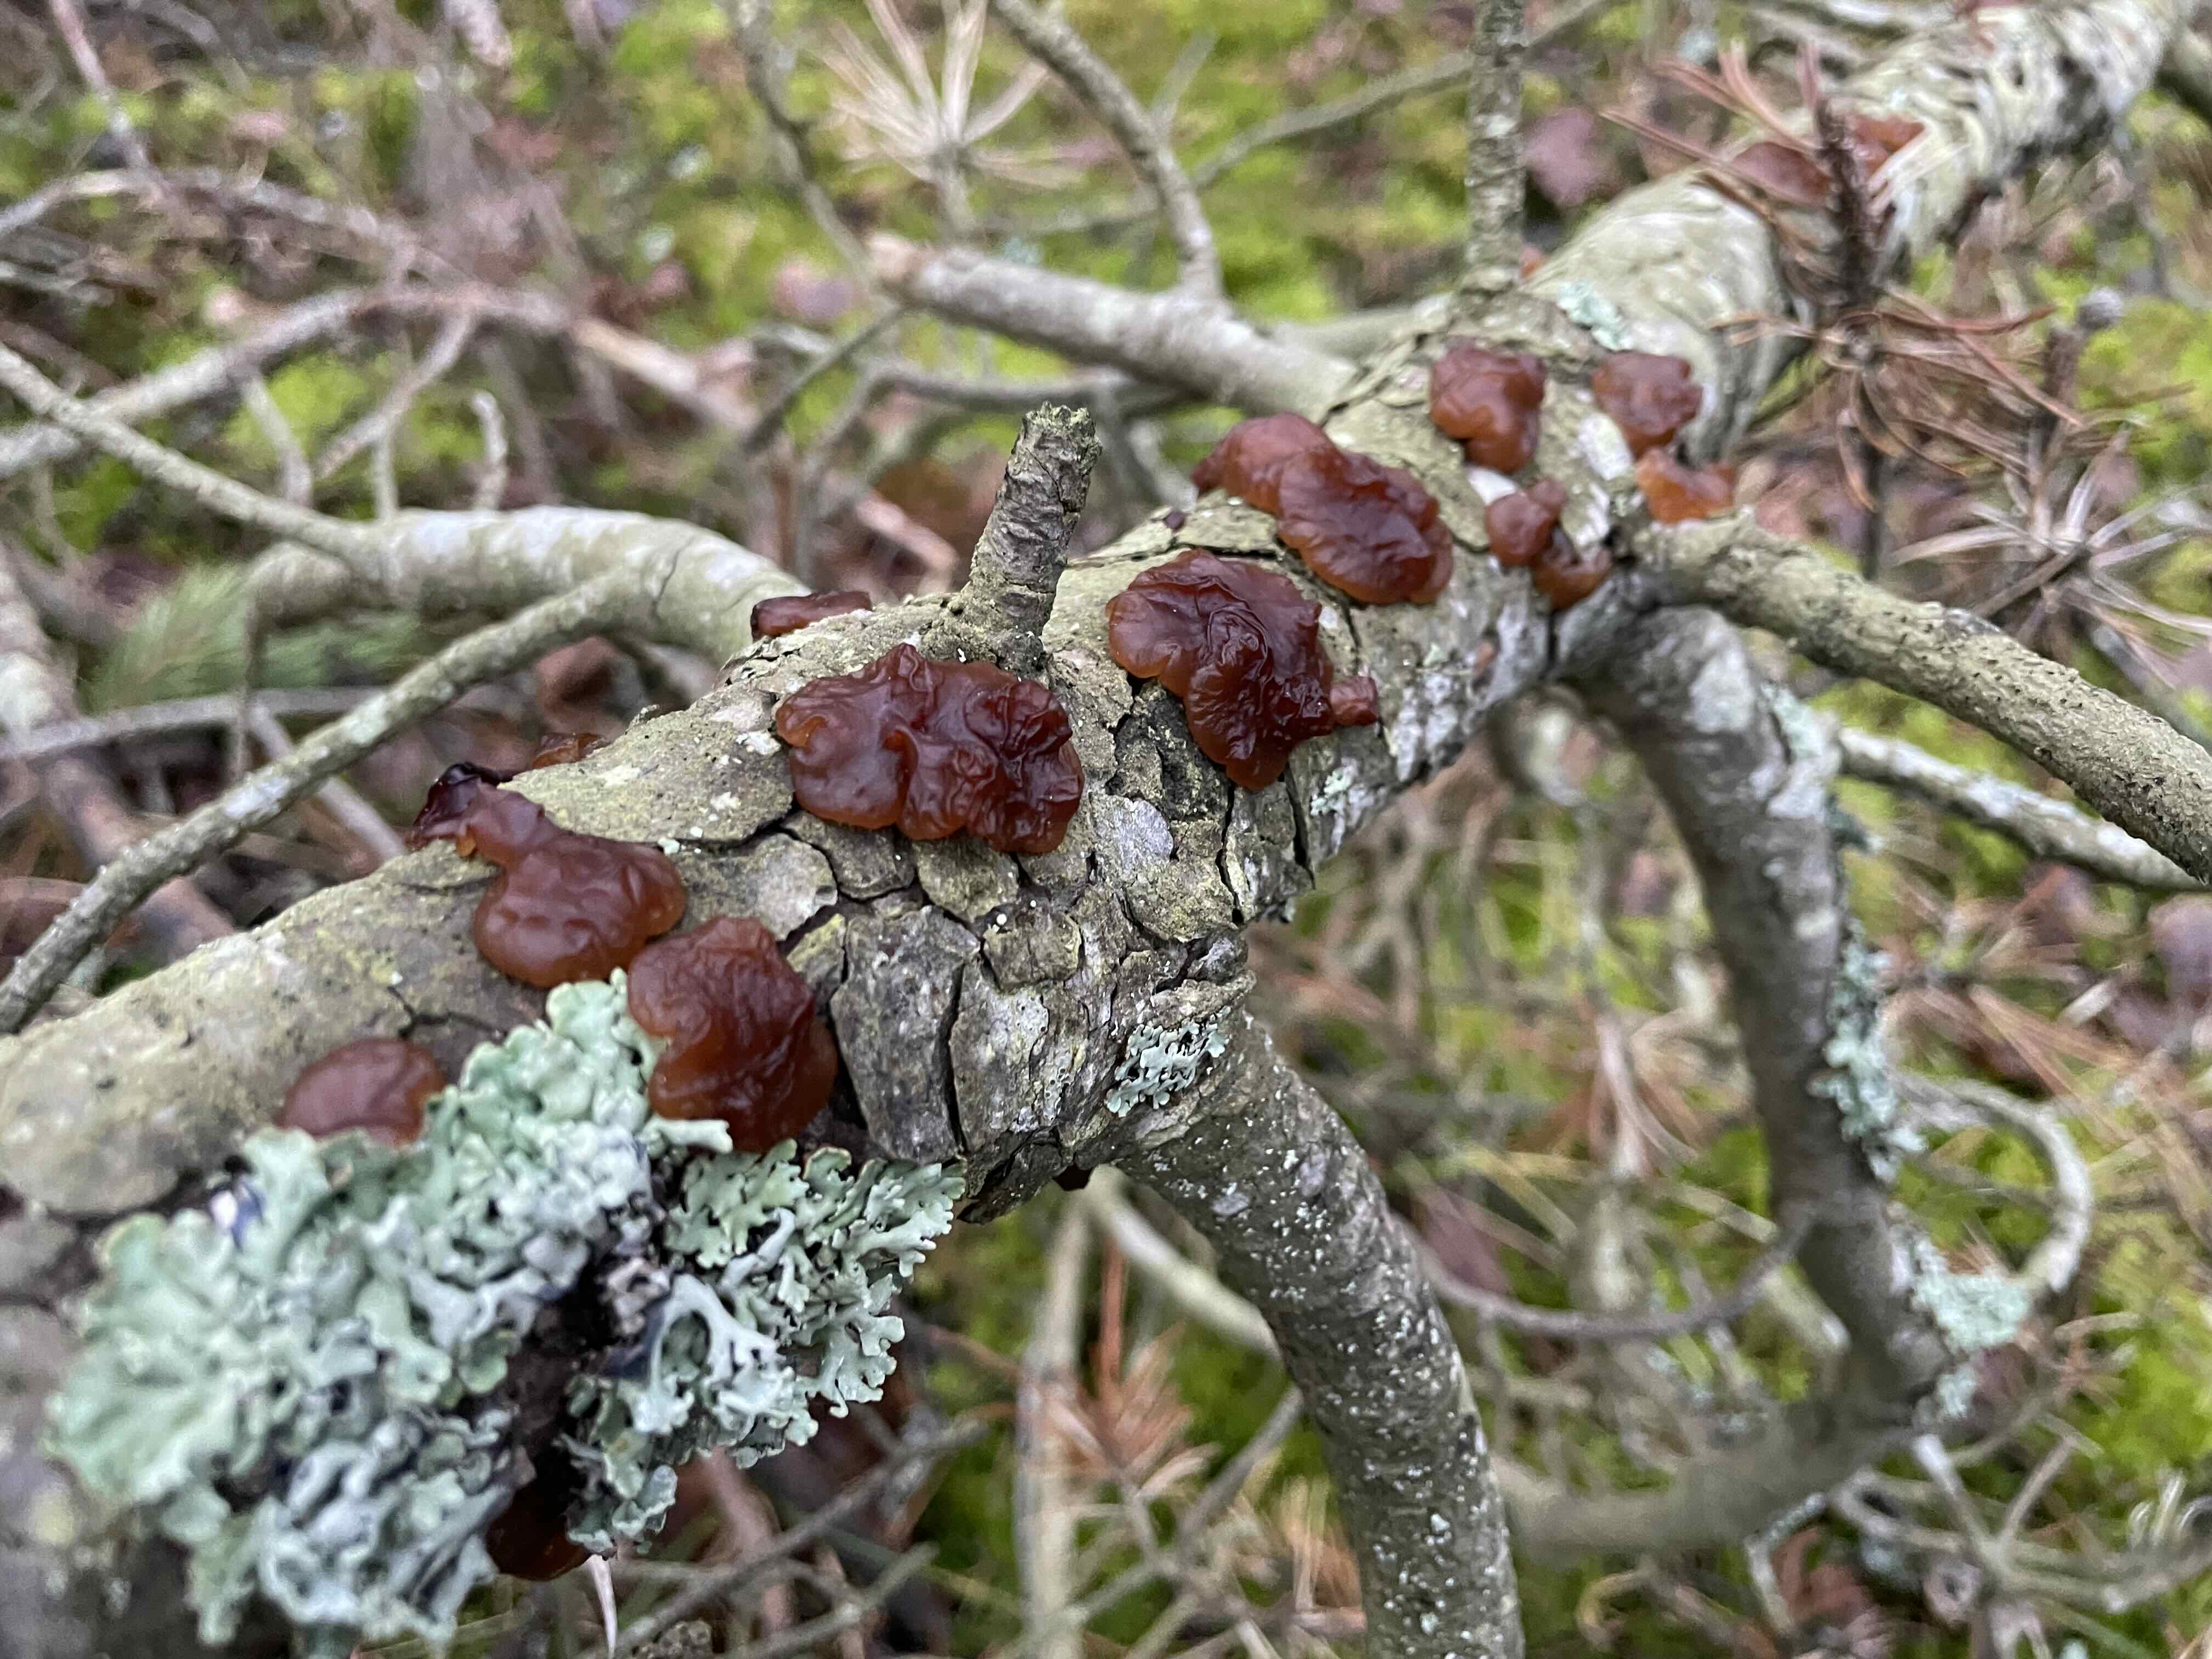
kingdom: Fungi
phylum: Basidiomycota
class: Agaricomycetes
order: Auriculariales
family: Auriculariaceae
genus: Exidia
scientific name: Exidia saccharina
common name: kandis-bævretop
